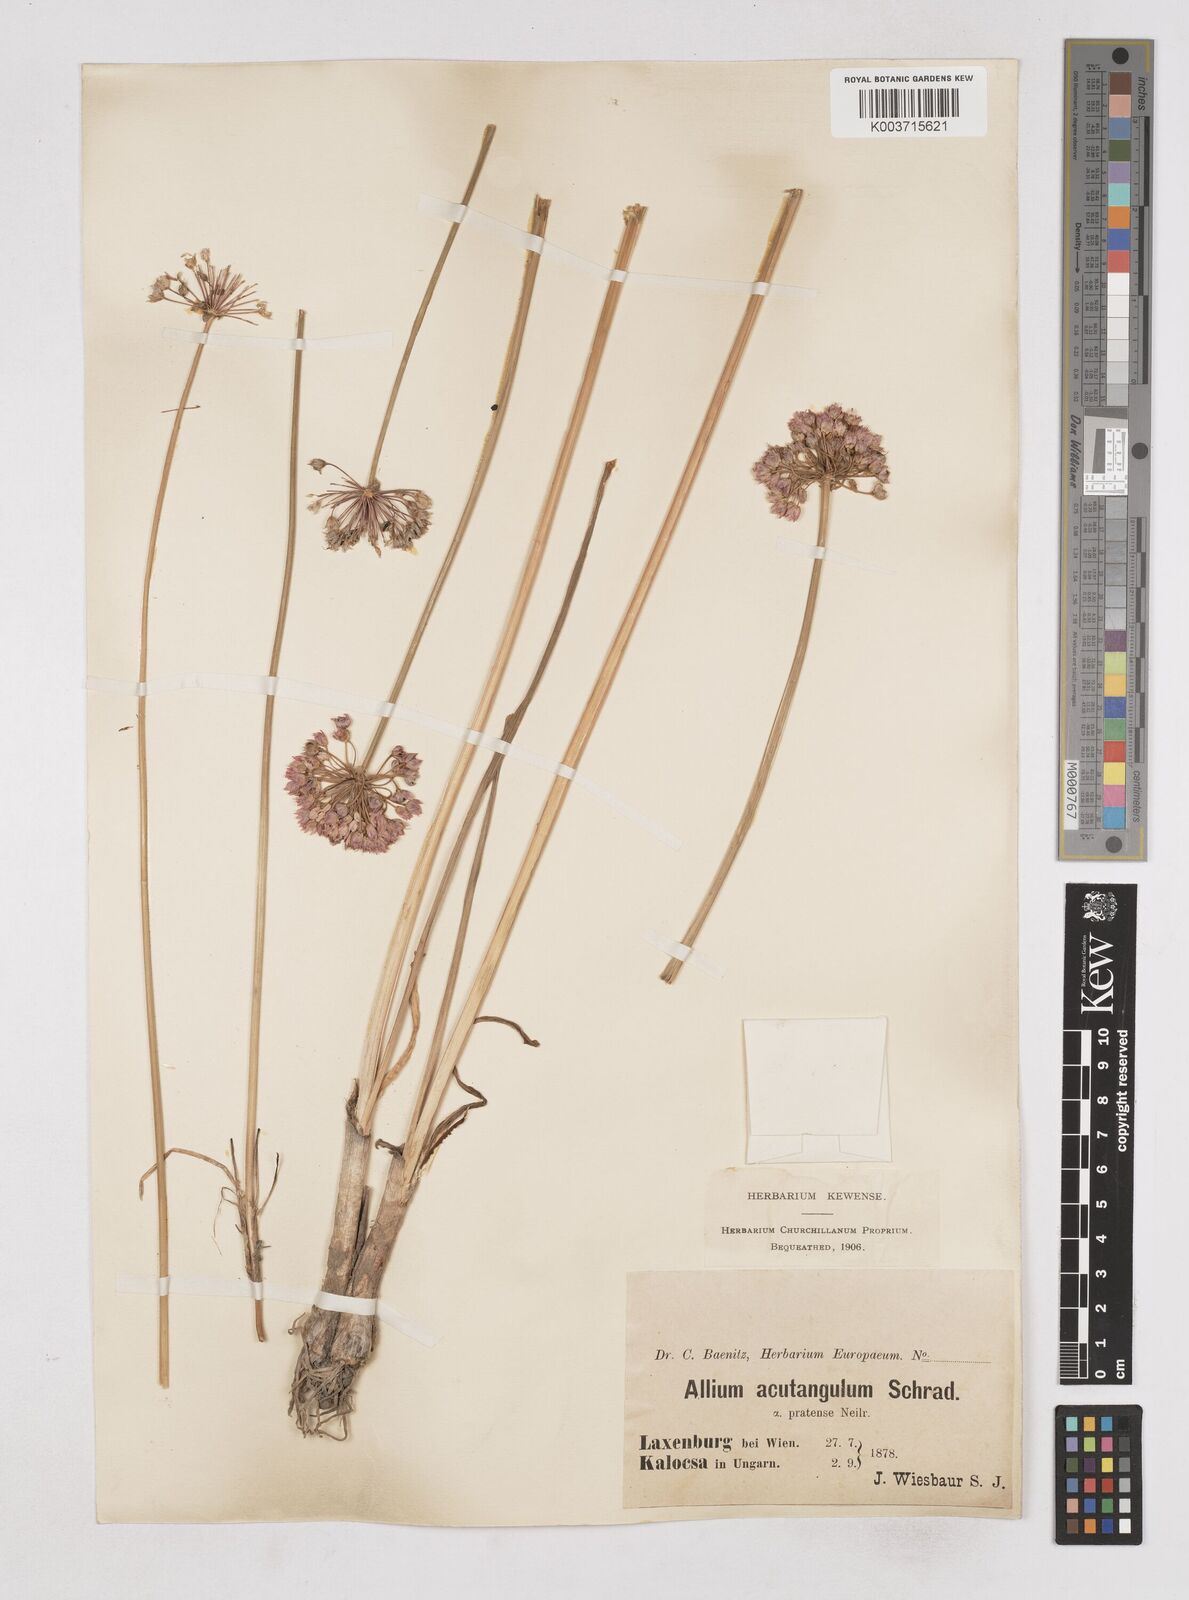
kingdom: Plantae
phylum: Tracheophyta
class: Liliopsida
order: Asparagales
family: Amaryllidaceae
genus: Allium
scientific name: Allium angulosum
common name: Mouse garlic
